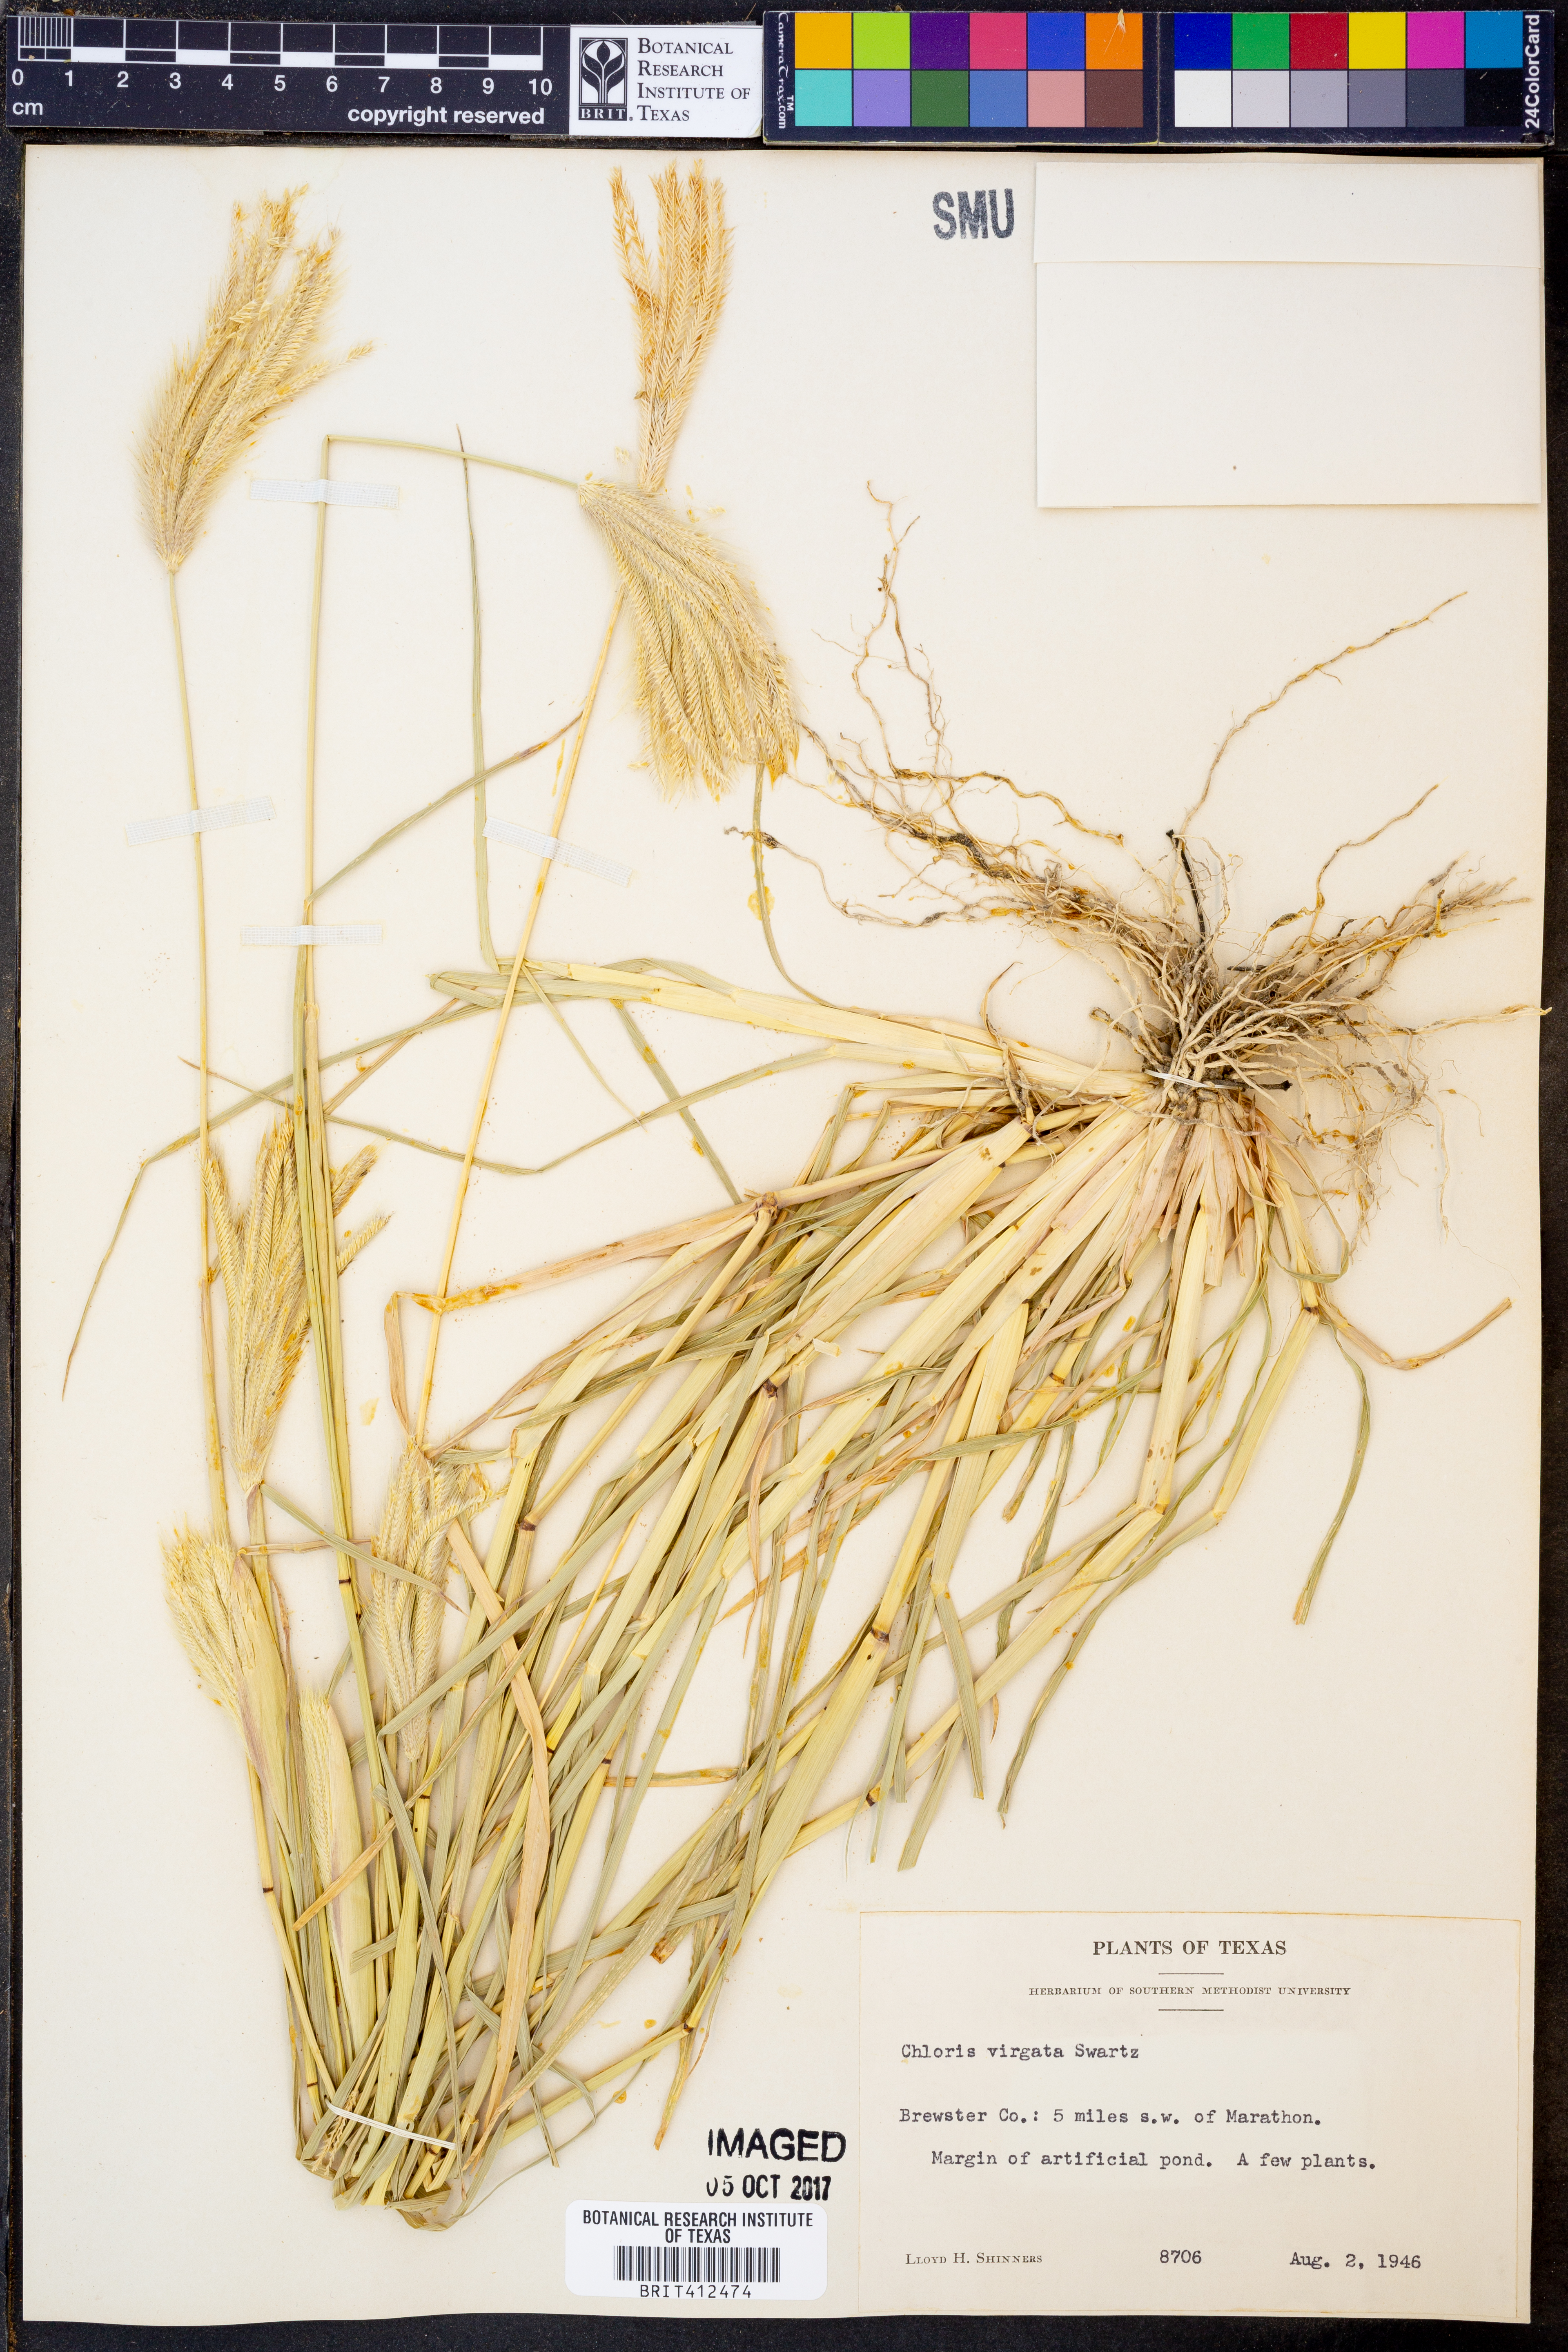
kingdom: Plantae
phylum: Tracheophyta
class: Liliopsida
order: Poales
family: Poaceae
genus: Chloris
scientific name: Chloris virgata
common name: Feathery rhodes-grass
